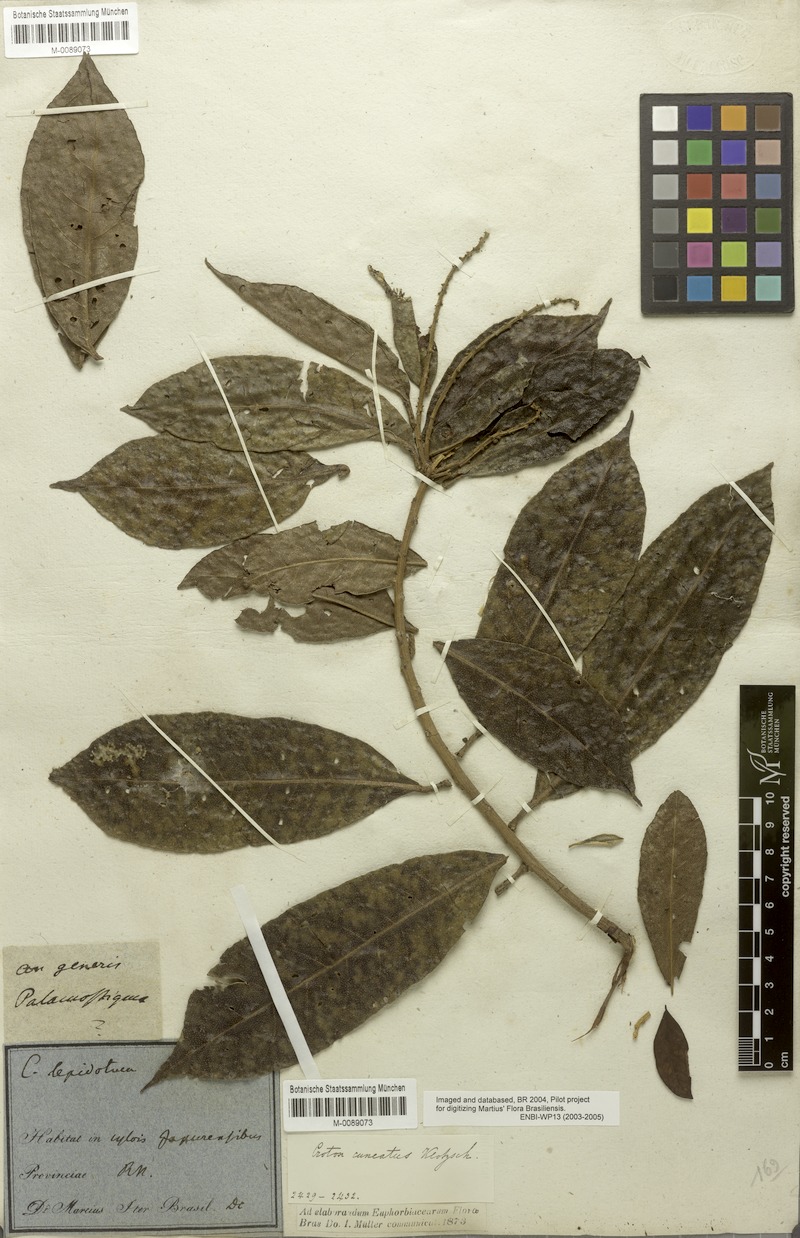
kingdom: Plantae
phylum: Tracheophyta
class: Magnoliopsida
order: Malpighiales
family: Euphorbiaceae
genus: Croton
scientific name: Croton cuneatus
